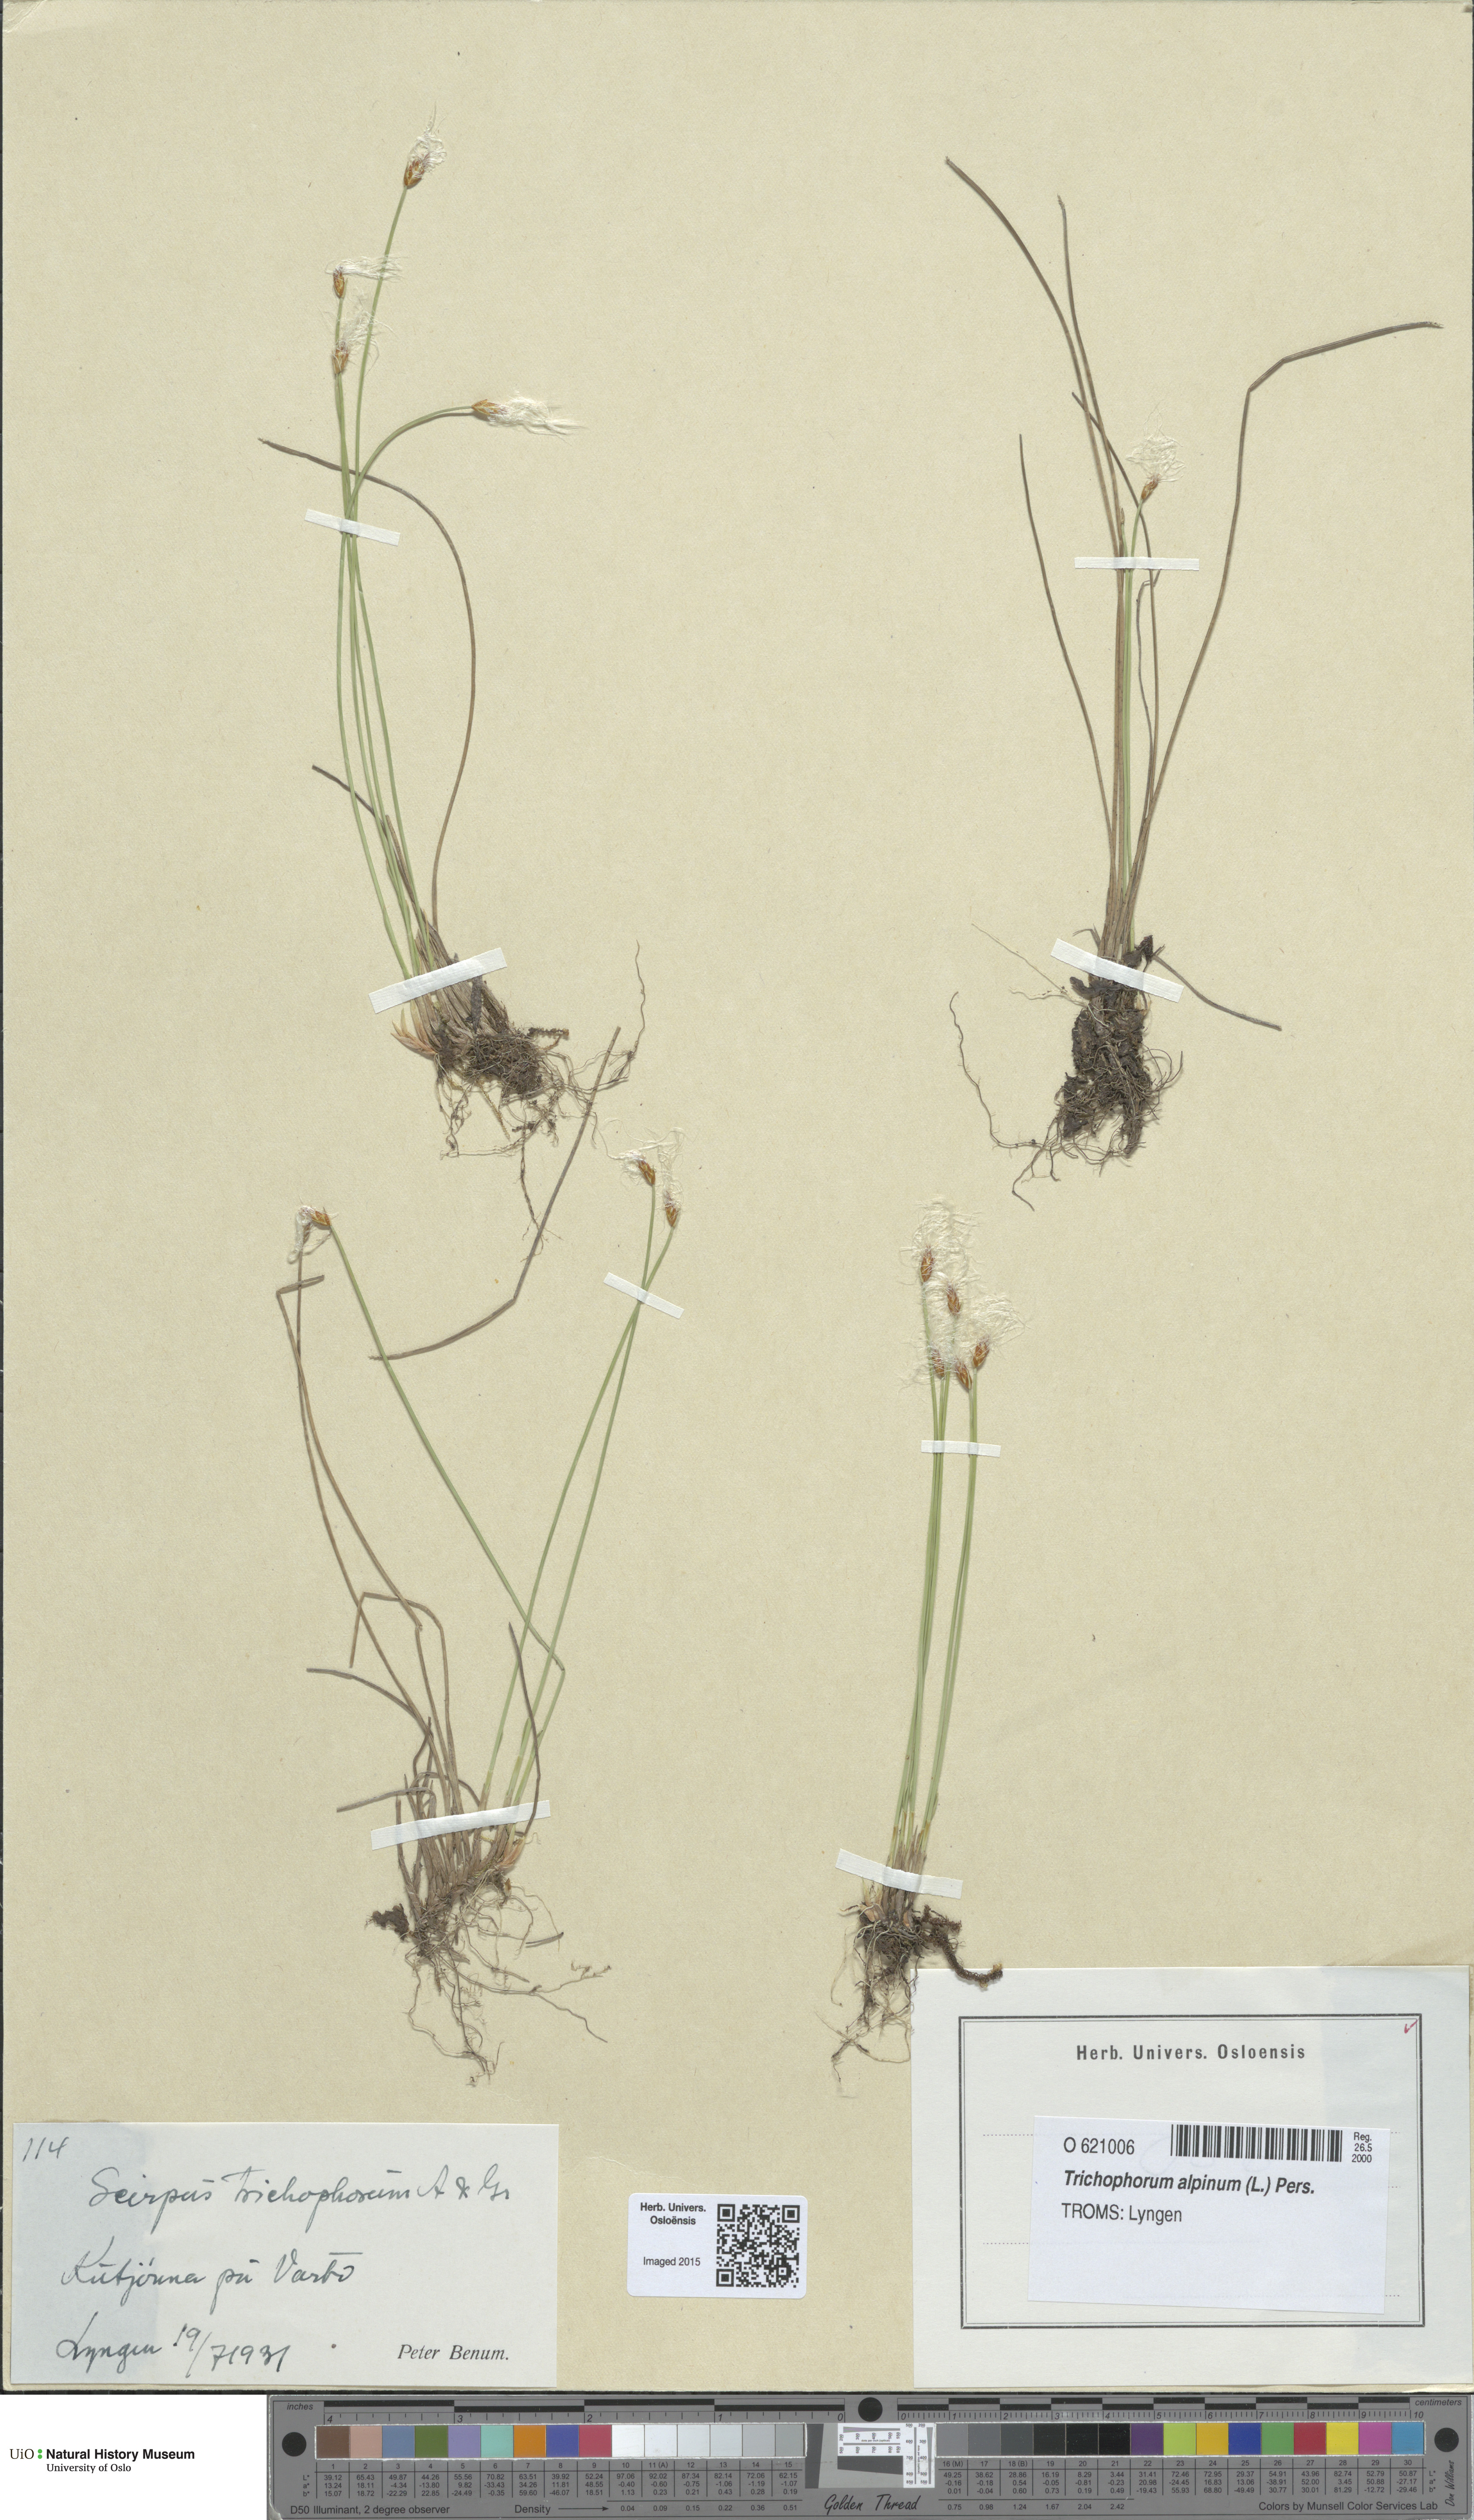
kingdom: Plantae
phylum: Tracheophyta
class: Liliopsida
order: Poales
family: Cyperaceae
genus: Trichophorum
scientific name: Trichophorum alpinum
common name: Alpine bulrush
